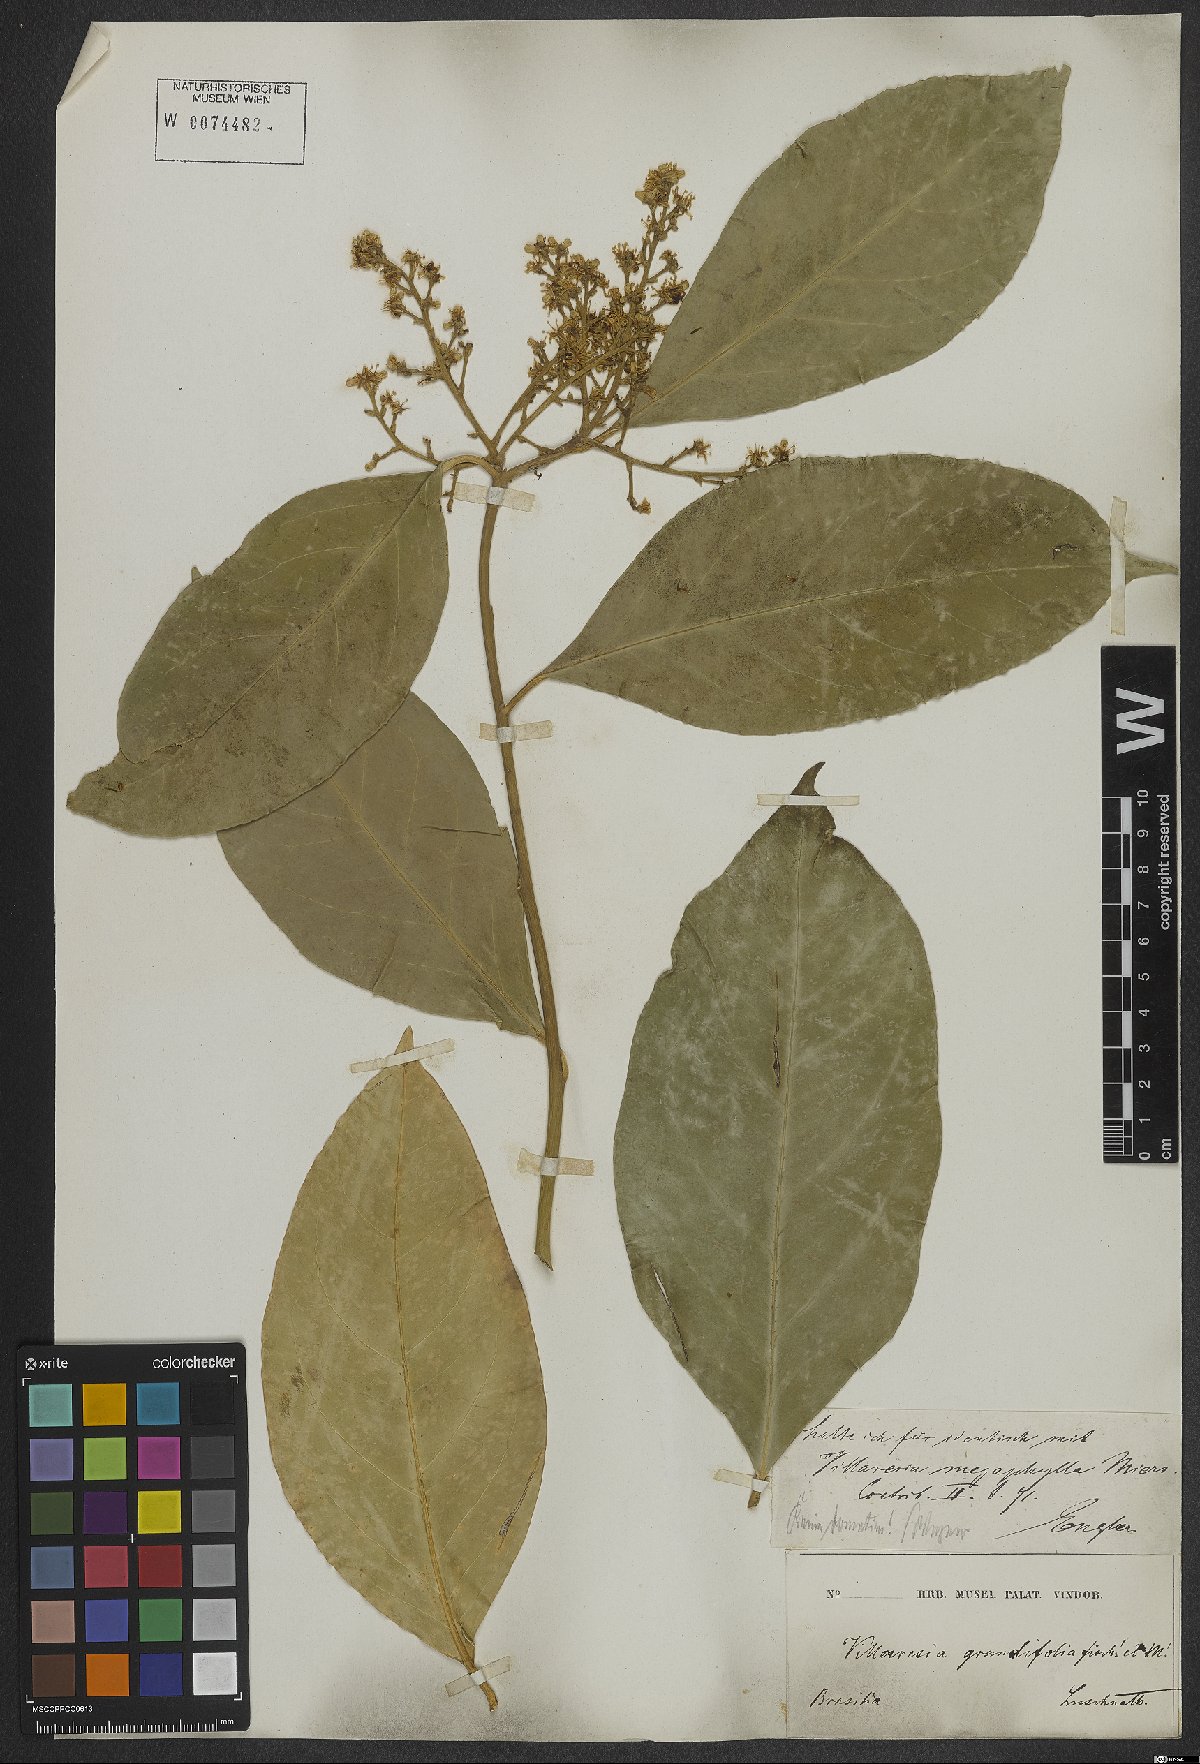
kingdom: Plantae
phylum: Tracheophyta
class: Magnoliopsida
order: Cardiopteridales
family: Cardiopteridaceae
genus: Citronella
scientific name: Citronella paniculata
